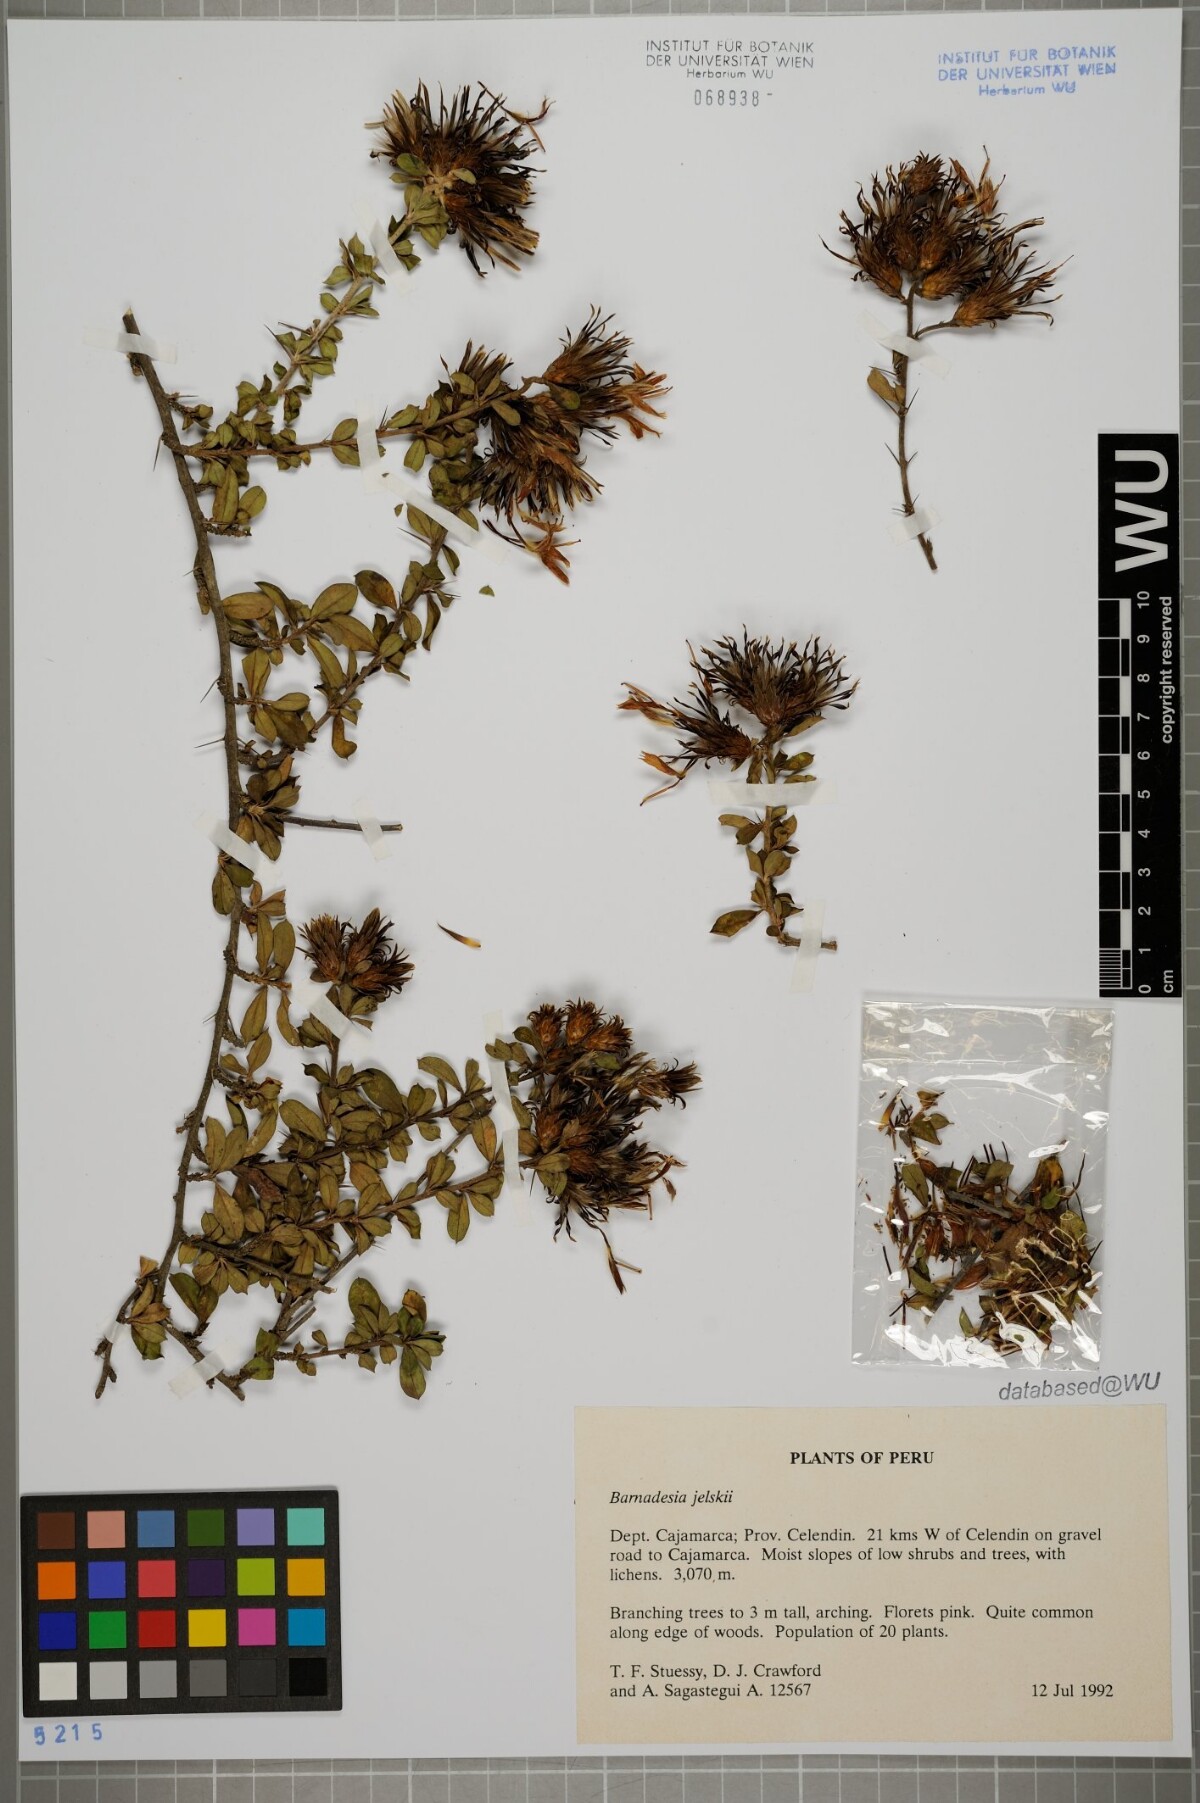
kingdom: Plantae
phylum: Tracheophyta
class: Magnoliopsida
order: Asterales
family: Asteraceae
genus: Barnadesia
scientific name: Barnadesia jelskii
